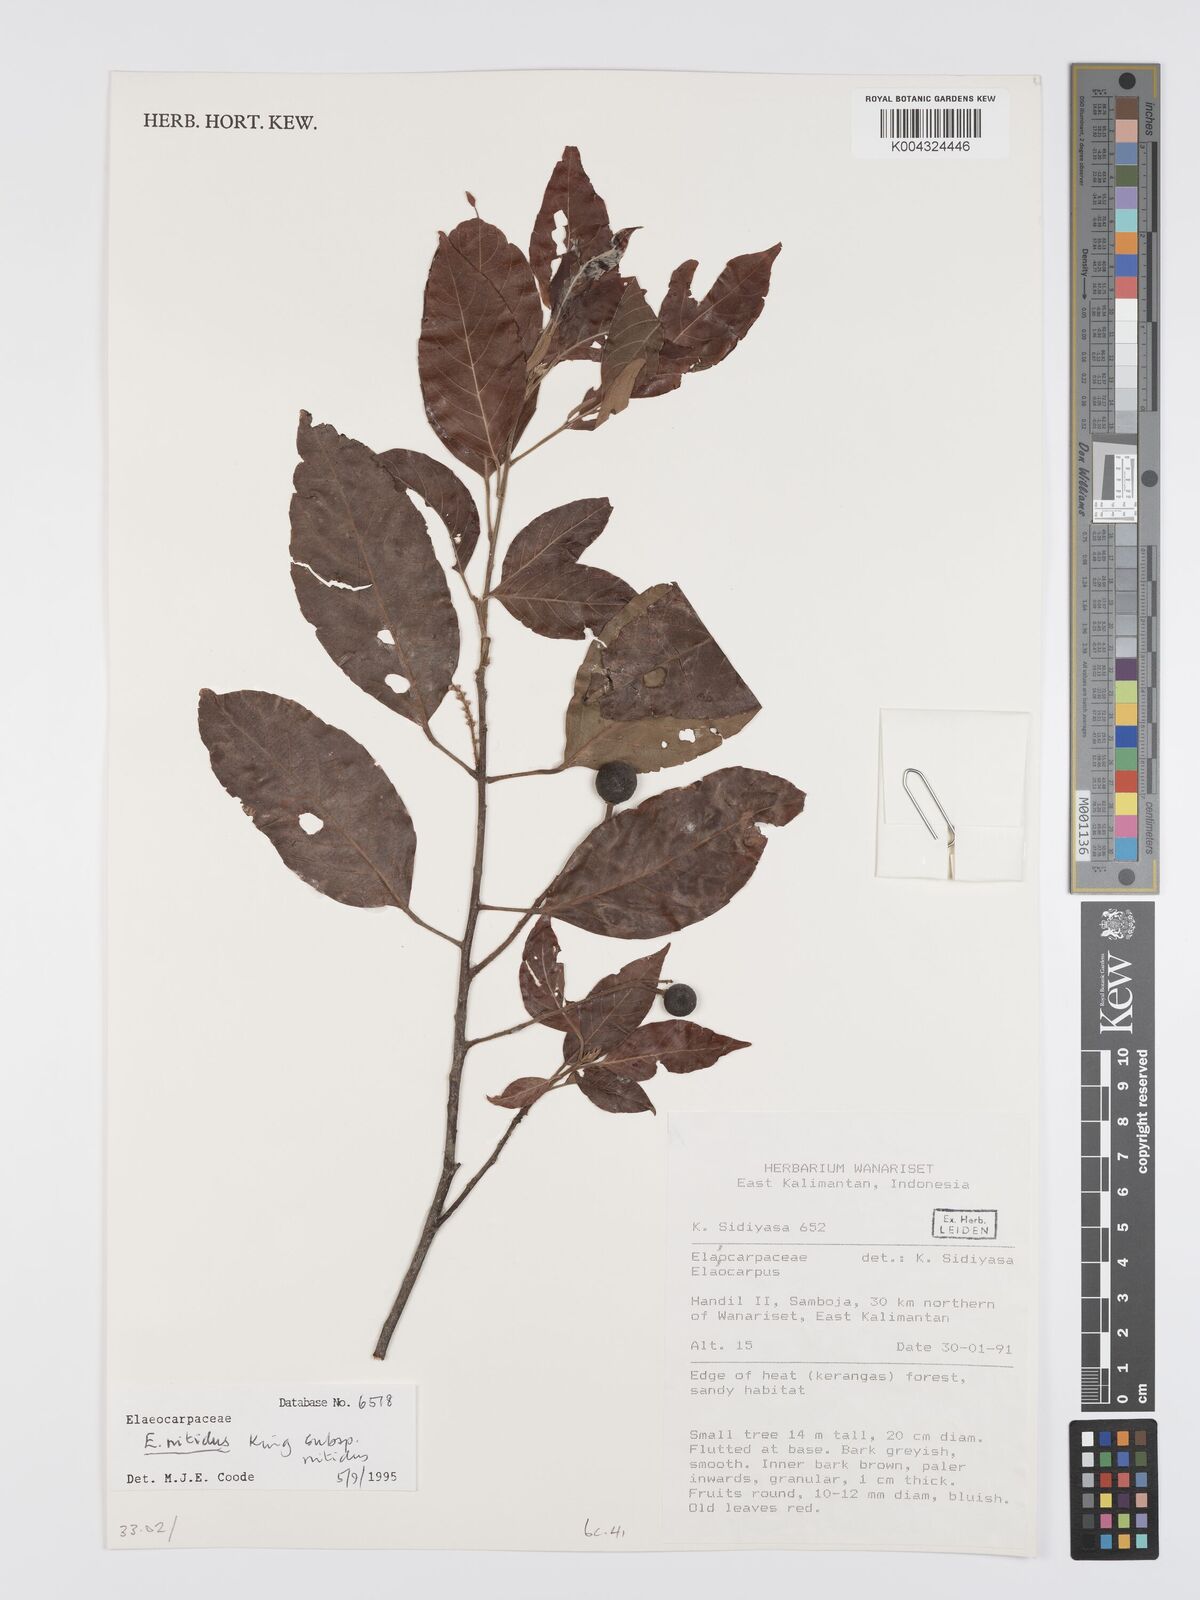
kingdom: Plantae
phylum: Tracheophyta
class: Magnoliopsida
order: Oxalidales
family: Elaeocarpaceae
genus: Elaeocarpus
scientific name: Elaeocarpus nitidus
